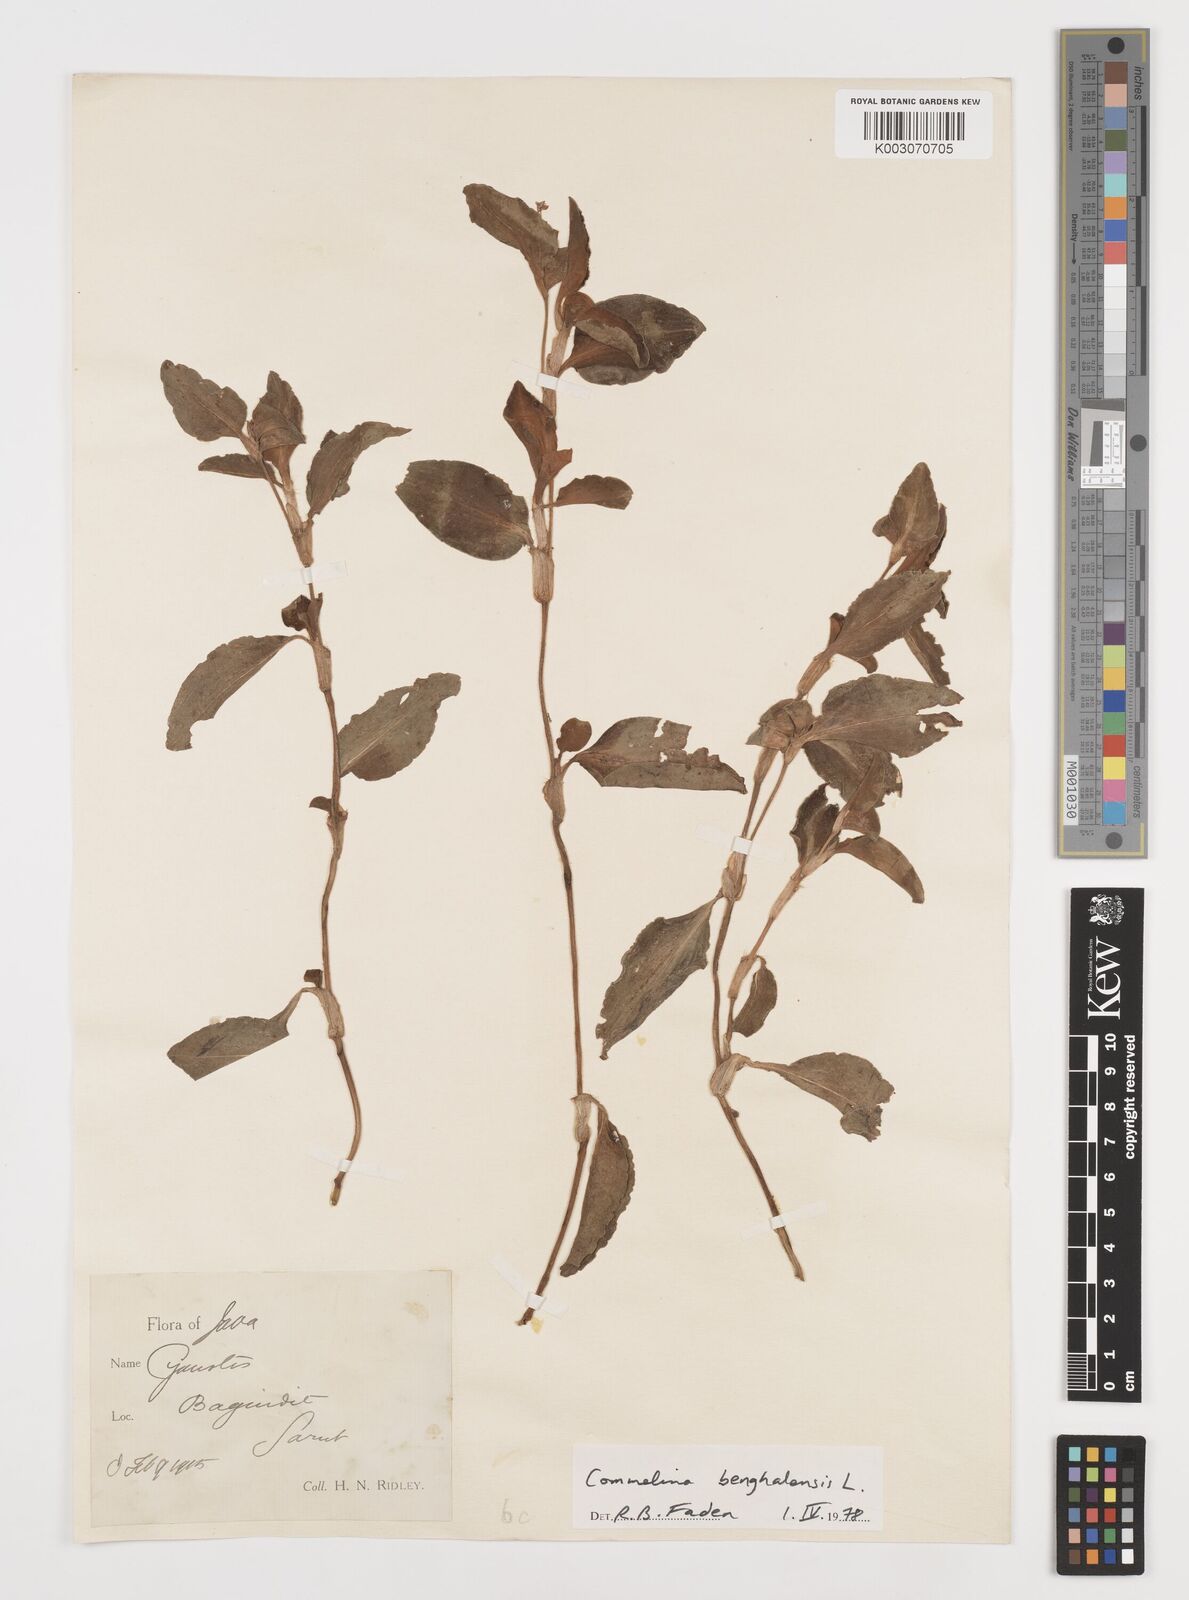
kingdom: Plantae
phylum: Tracheophyta
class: Liliopsida
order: Commelinales
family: Commelinaceae
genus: Commelina
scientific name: Commelina benghalensis
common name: Jio
